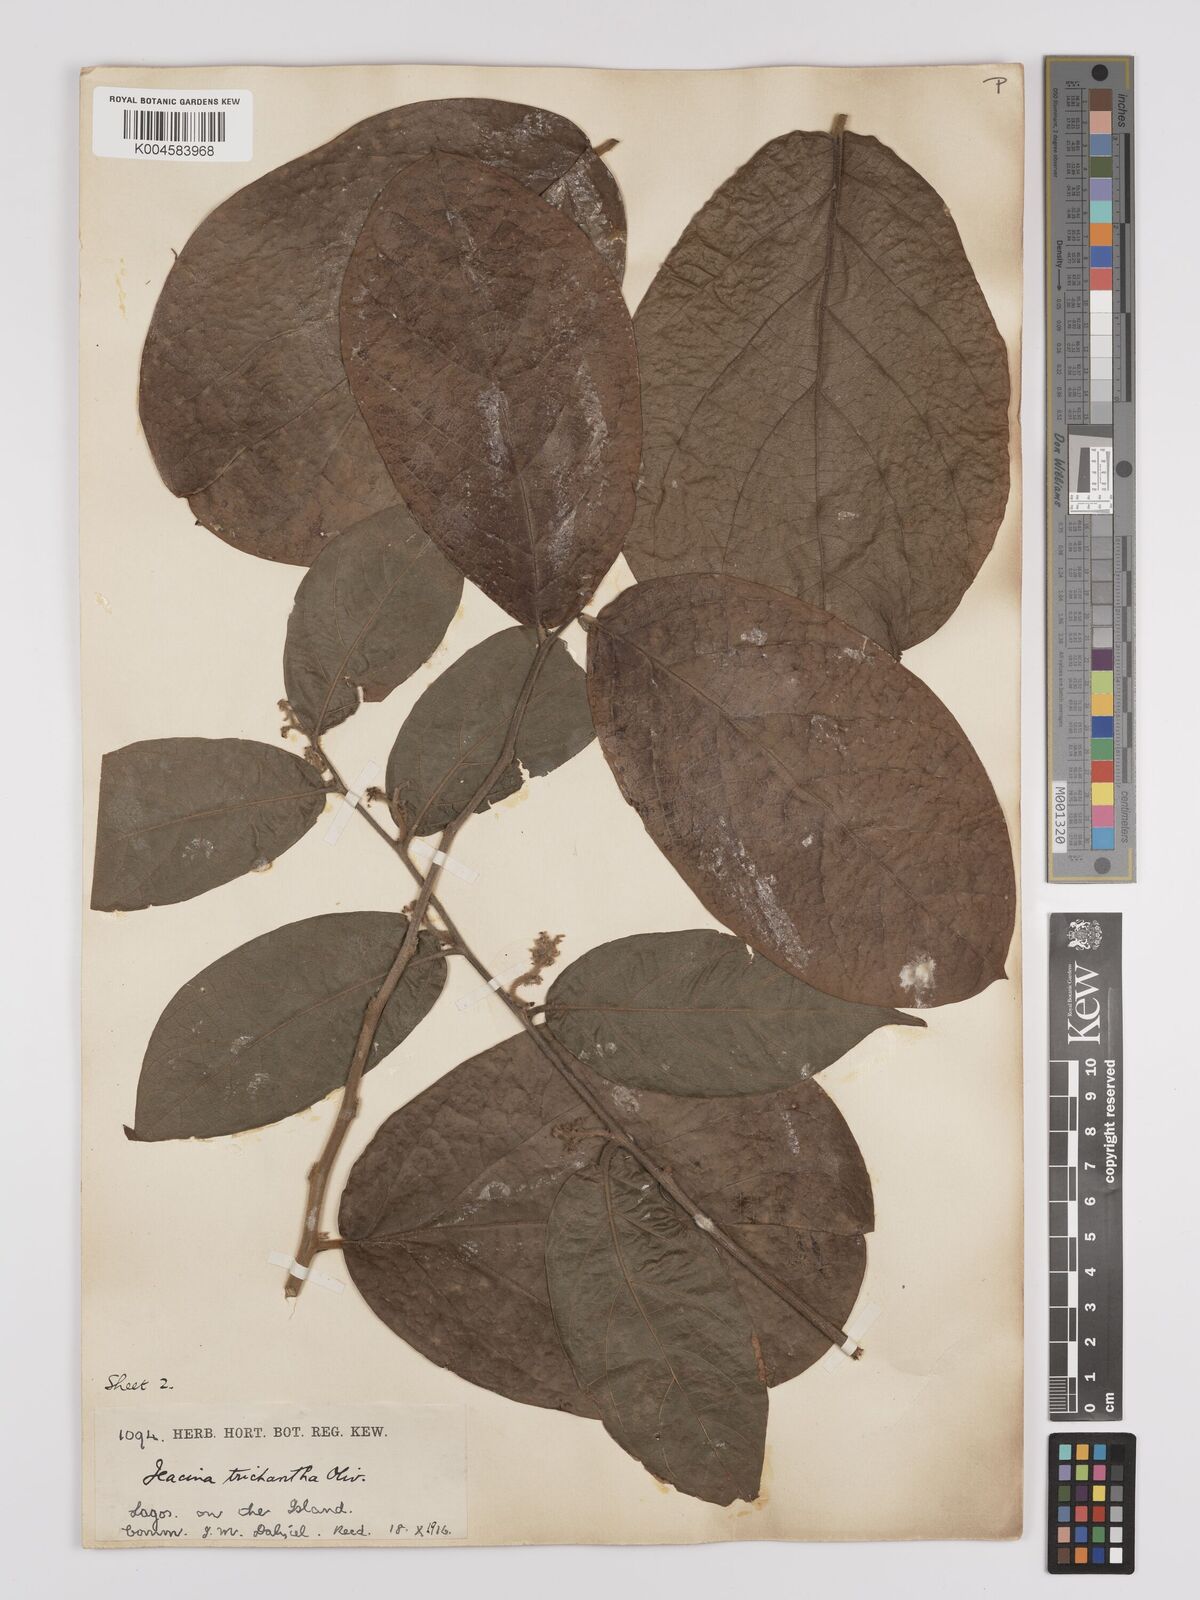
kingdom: Plantae
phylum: Tracheophyta
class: Magnoliopsida
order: Icacinales
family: Icacinaceae
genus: Icacina
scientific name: Icacina trichantha
